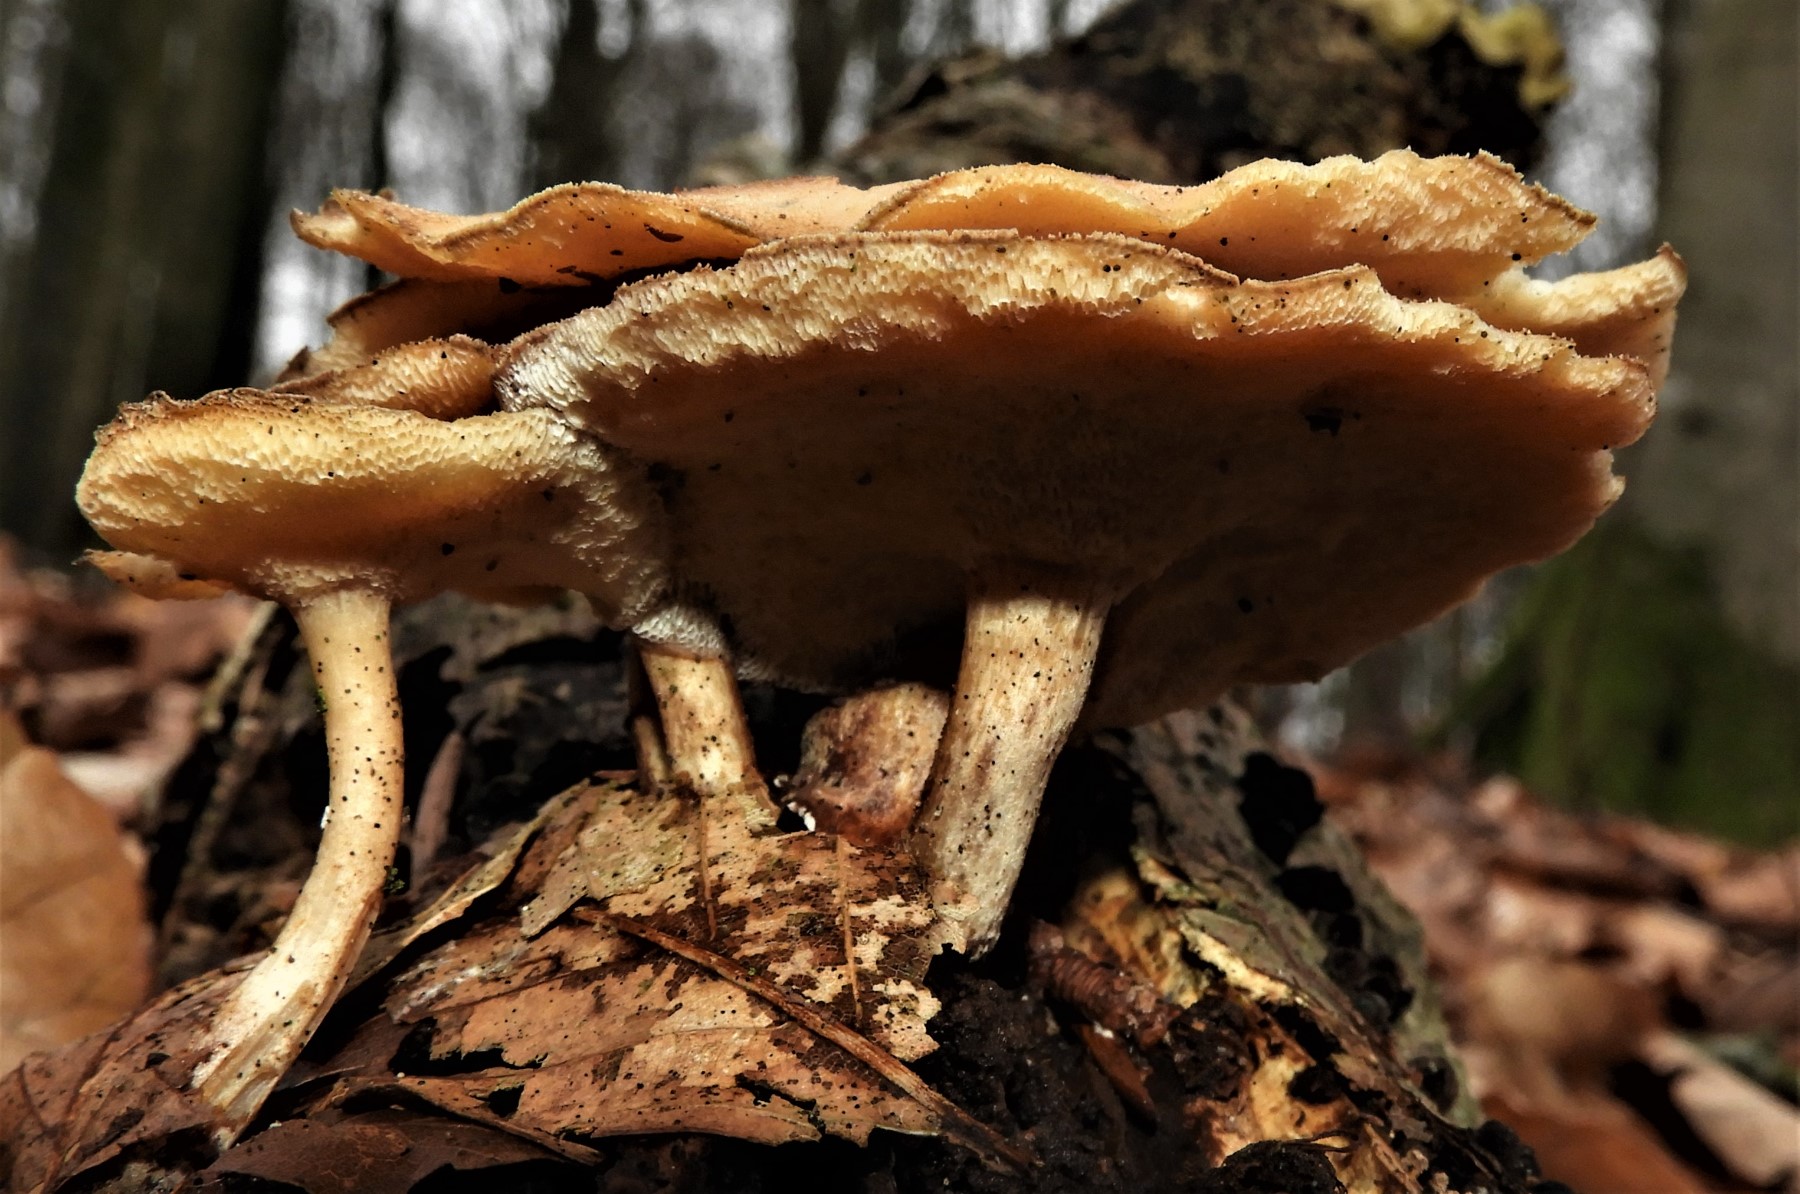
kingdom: Fungi
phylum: Basidiomycota
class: Agaricomycetes
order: Polyporales
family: Polyporaceae
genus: Lentinus
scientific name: Lentinus brumalis
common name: vinter-stilkporesvamp
